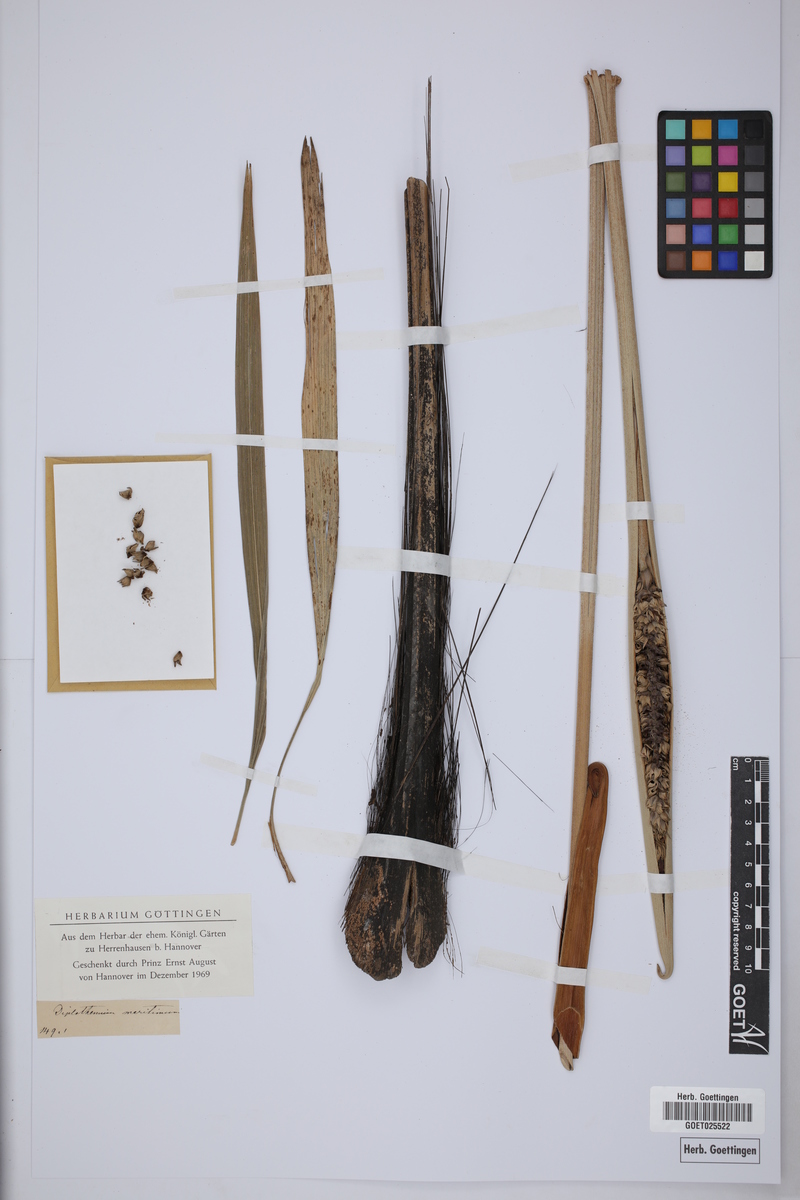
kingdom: Plantae
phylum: Tracheophyta
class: Liliopsida
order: Arecales
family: Arecaceae
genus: Allagoptera
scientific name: Allagoptera arenaria
